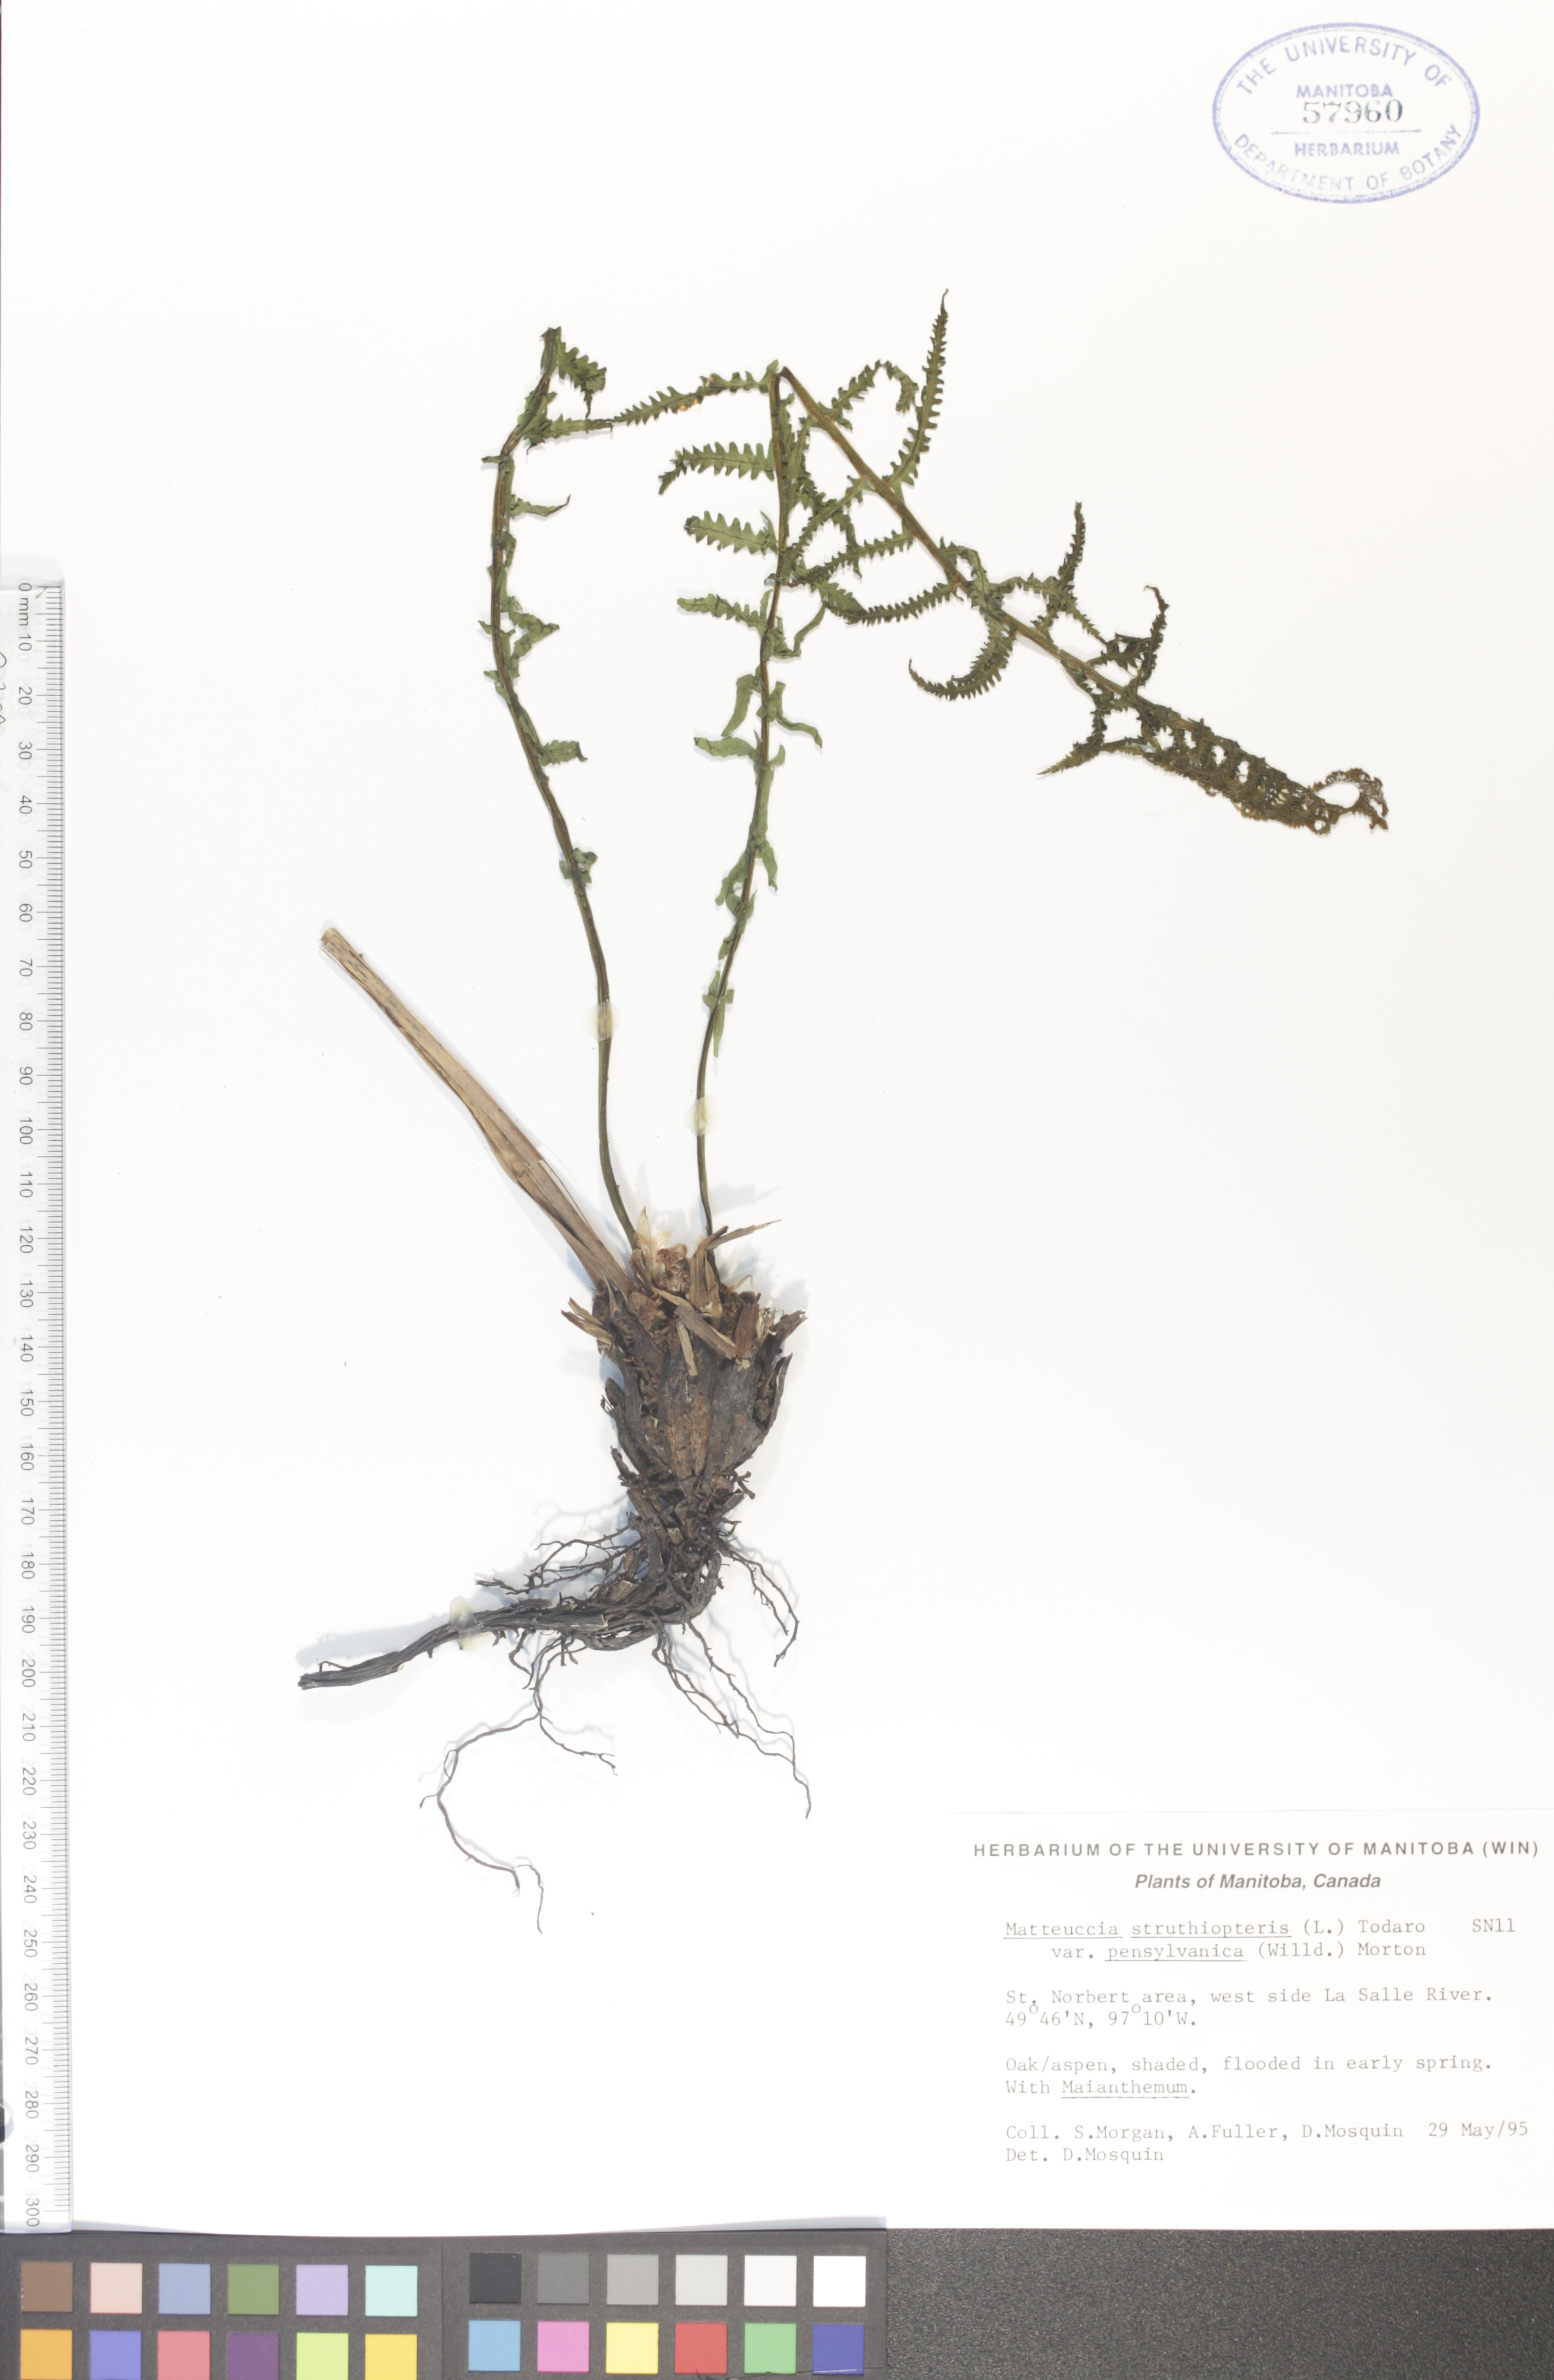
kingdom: Plantae
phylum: Tracheophyta
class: Polypodiopsida
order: Polypodiales
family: Onocleaceae
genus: Matteuccia
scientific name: Matteuccia pensylvanica
